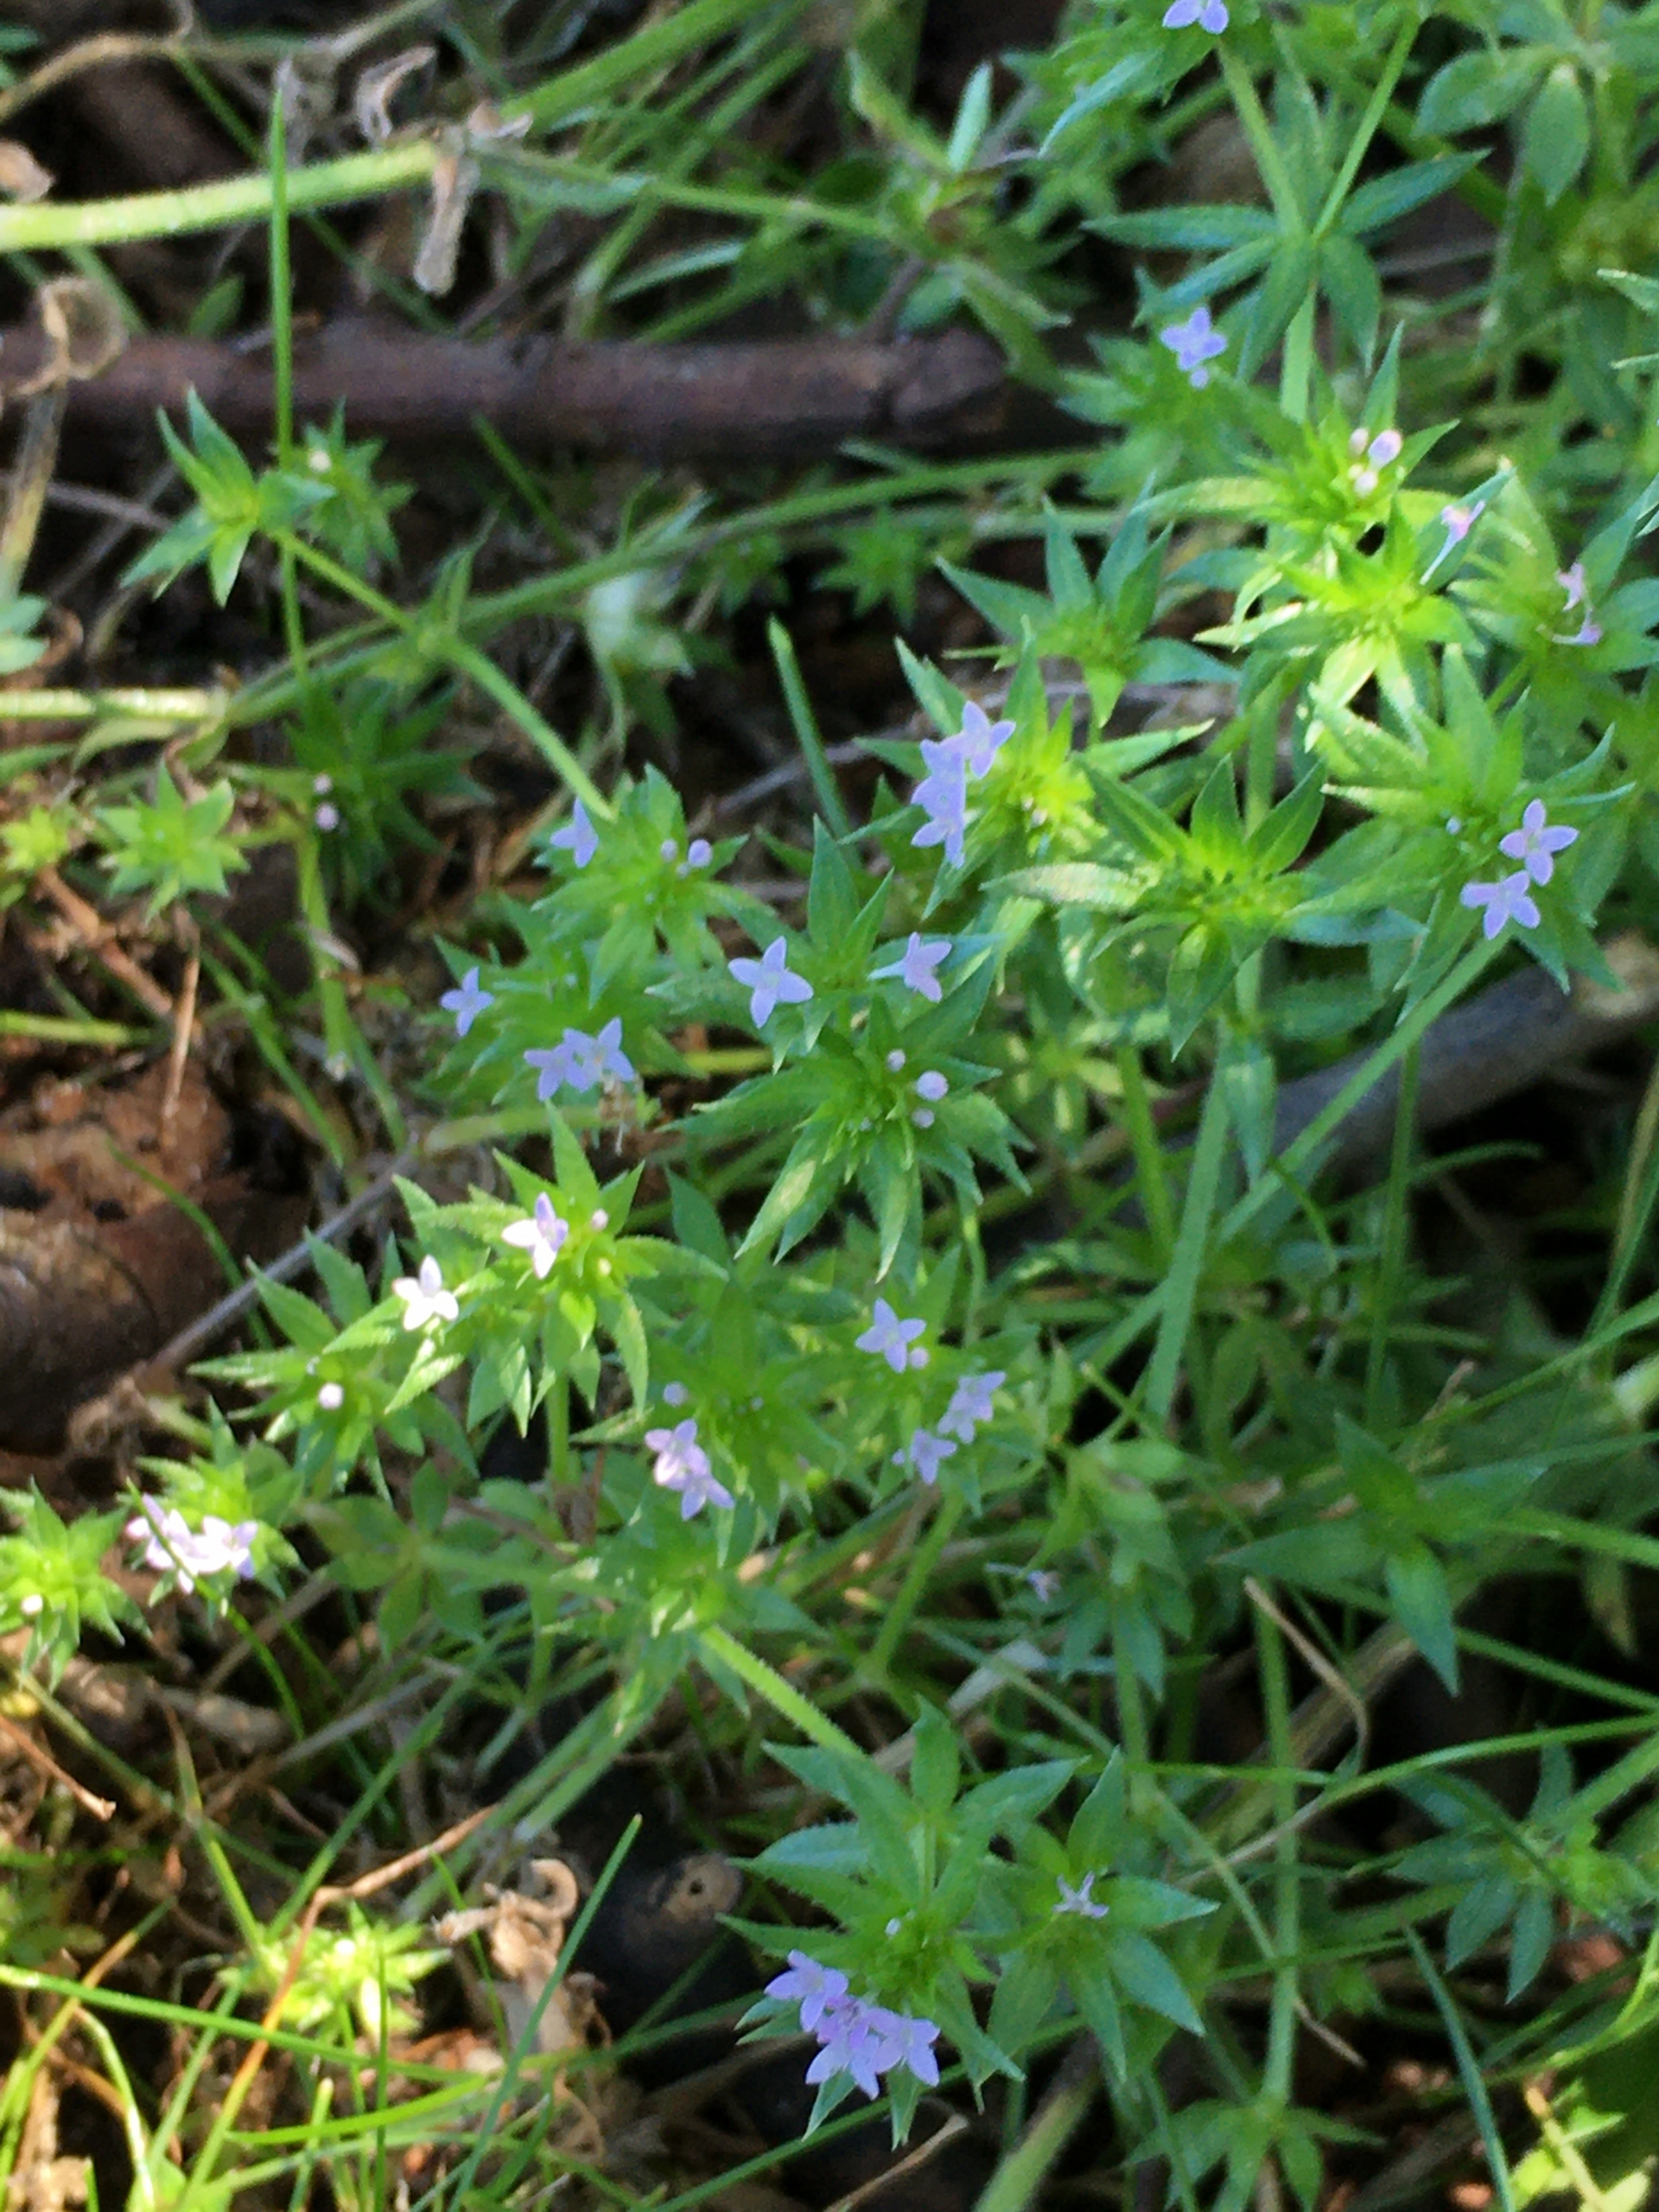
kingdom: Plantae
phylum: Tracheophyta
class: Magnoliopsida
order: Gentianales
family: Rubiaceae
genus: Sherardia
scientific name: Sherardia arvensis
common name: Blåstjerne
